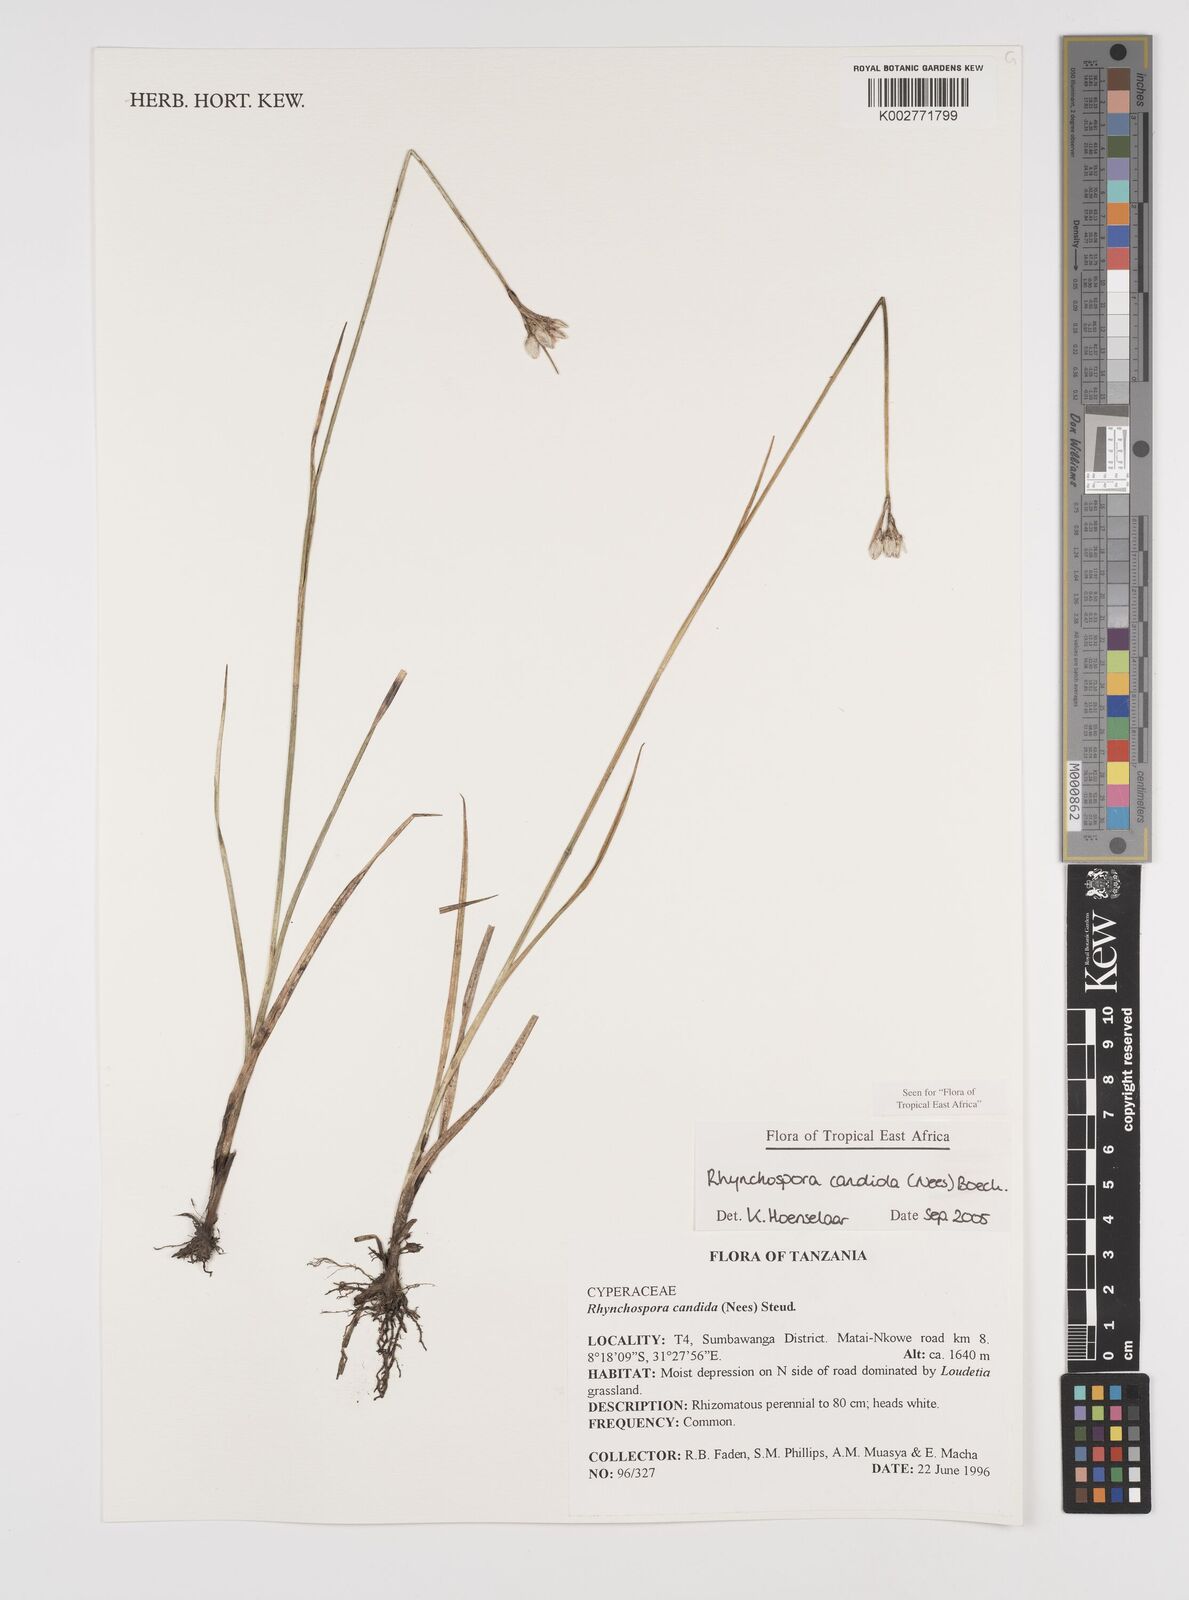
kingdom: Plantae
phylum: Tracheophyta
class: Liliopsida
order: Poales
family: Cyperaceae
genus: Rhynchospora
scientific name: Rhynchospora candida
